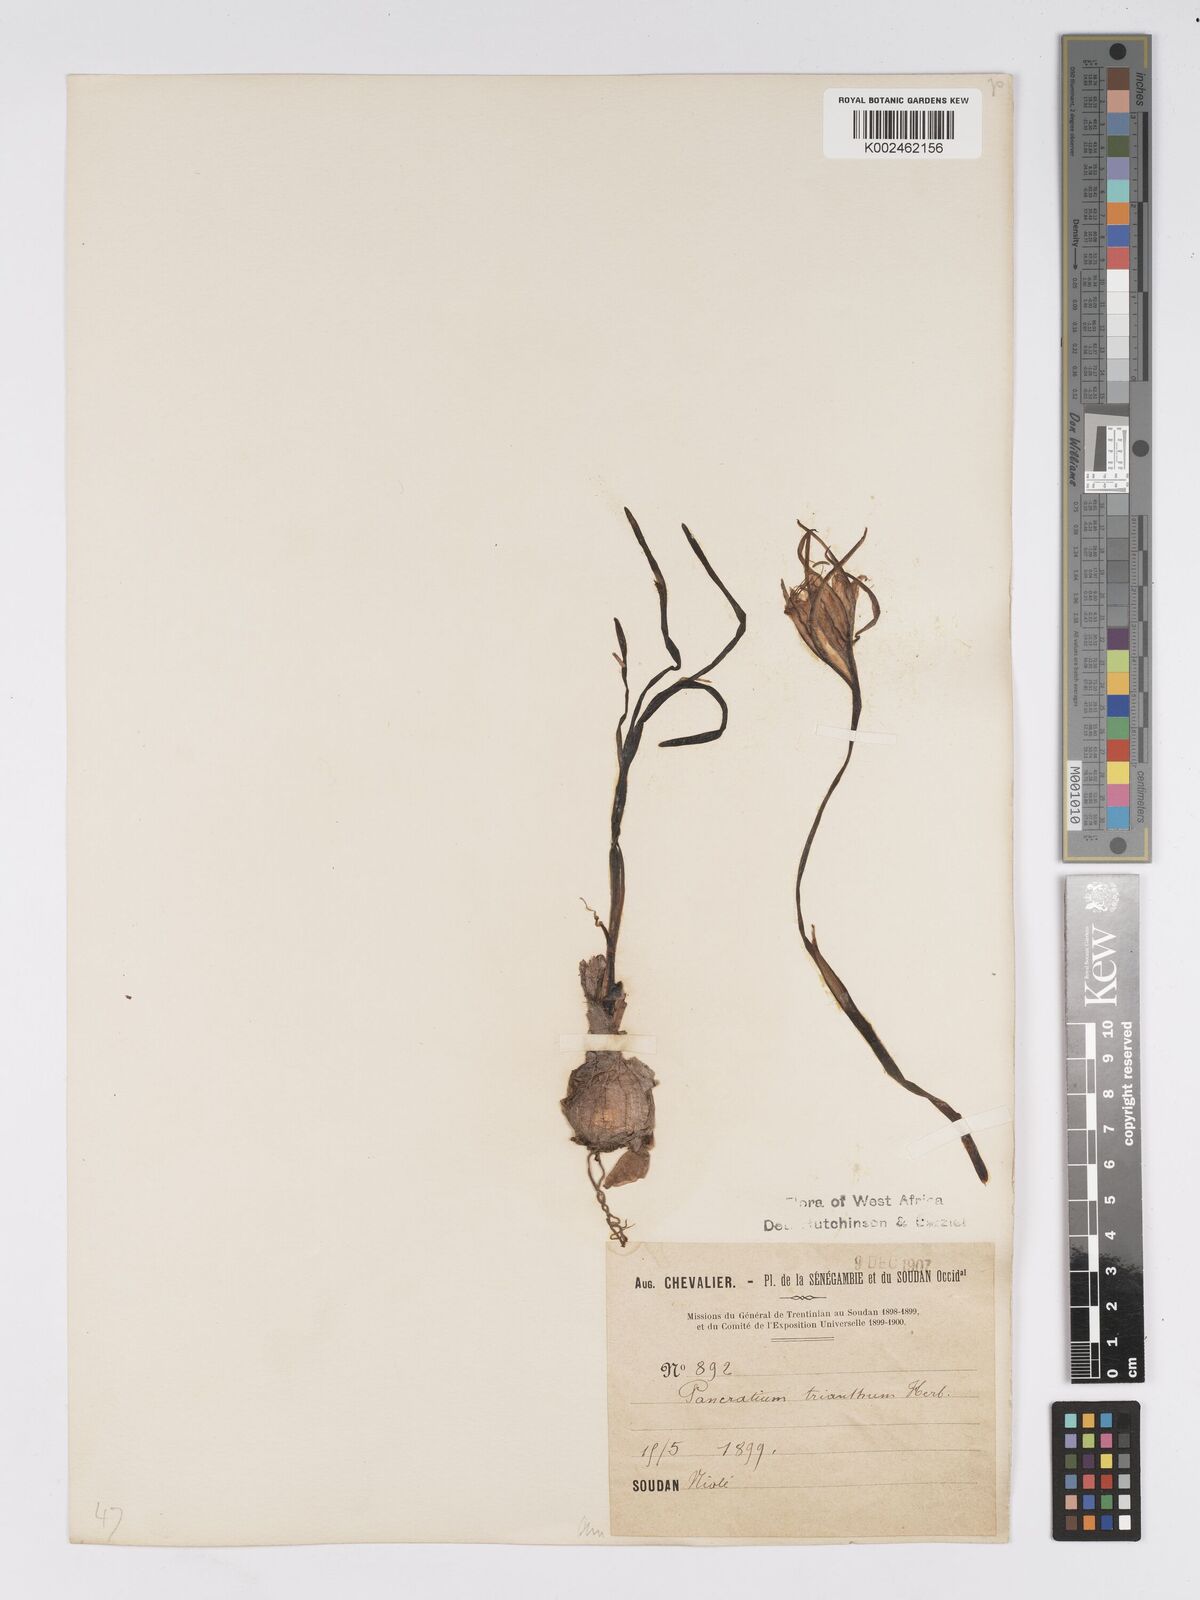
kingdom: Plantae
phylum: Tracheophyta
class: Liliopsida
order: Asparagales
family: Amaryllidaceae
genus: Pancratium
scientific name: Pancratium trianthum
